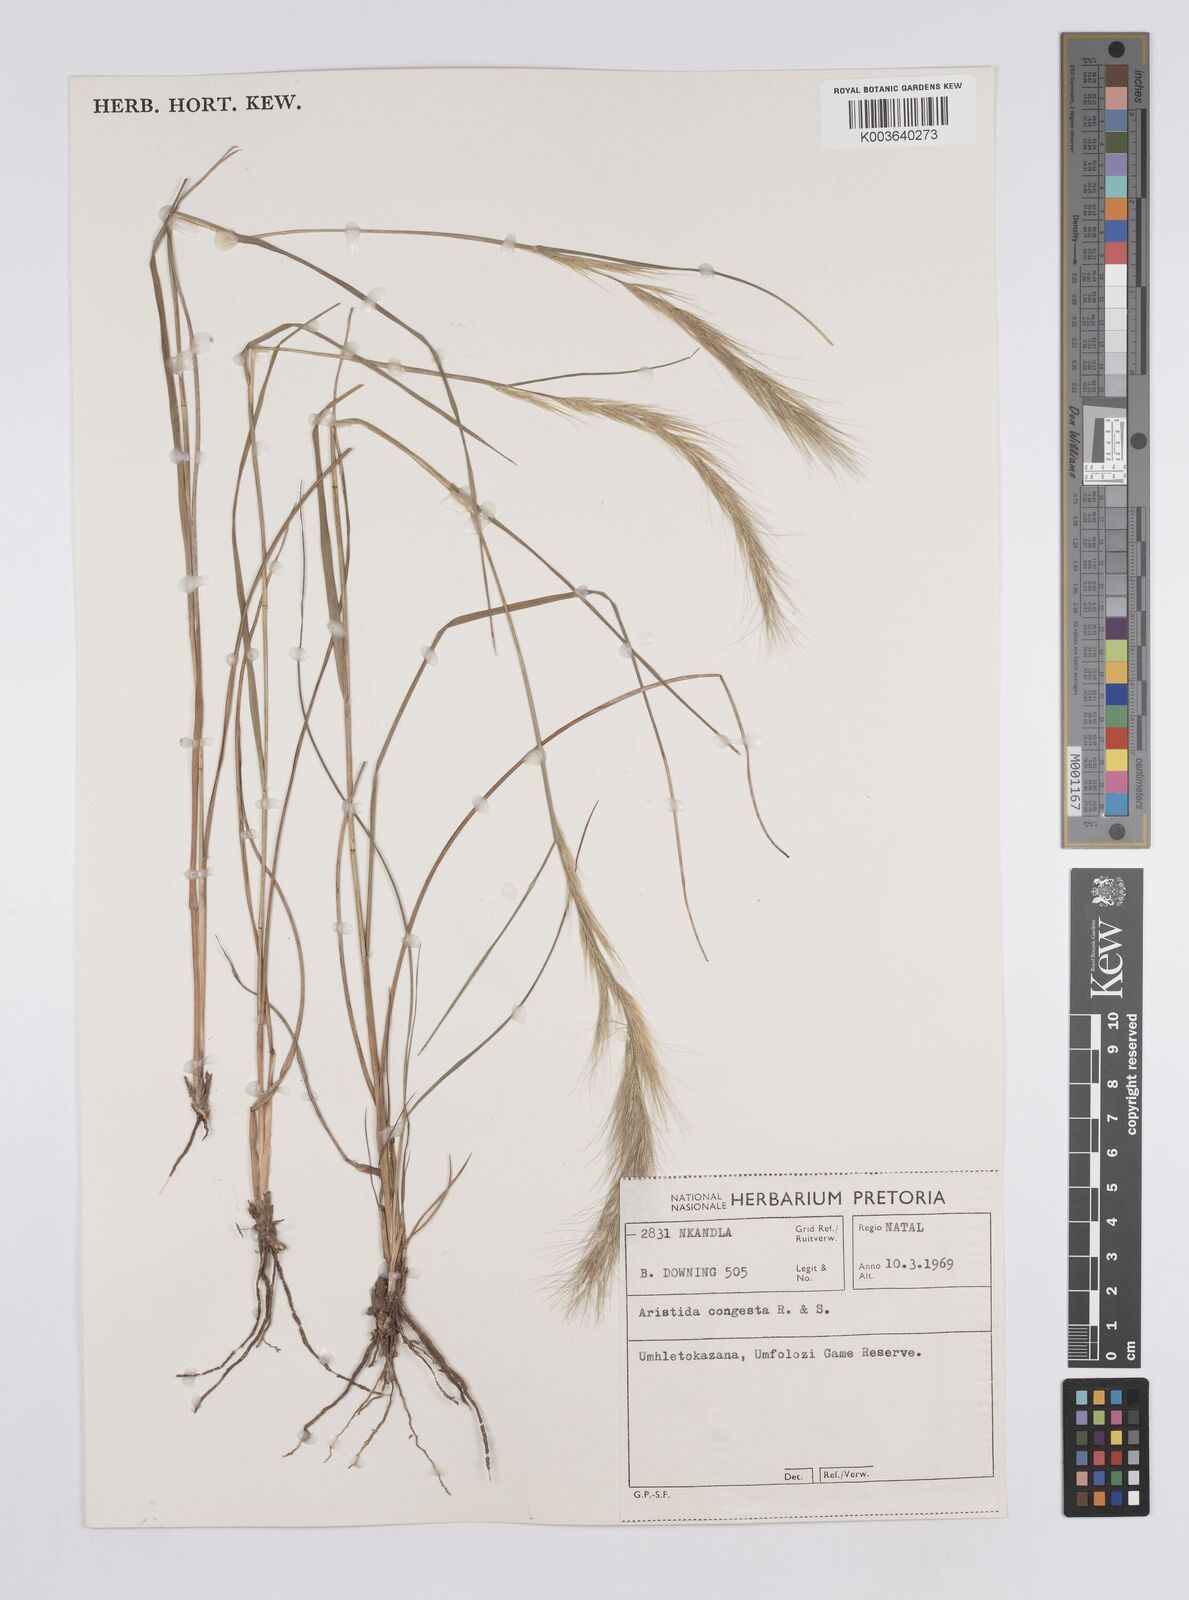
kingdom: Plantae
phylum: Tracheophyta
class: Liliopsida
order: Poales
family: Poaceae
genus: Aristida
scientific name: Aristida congesta
